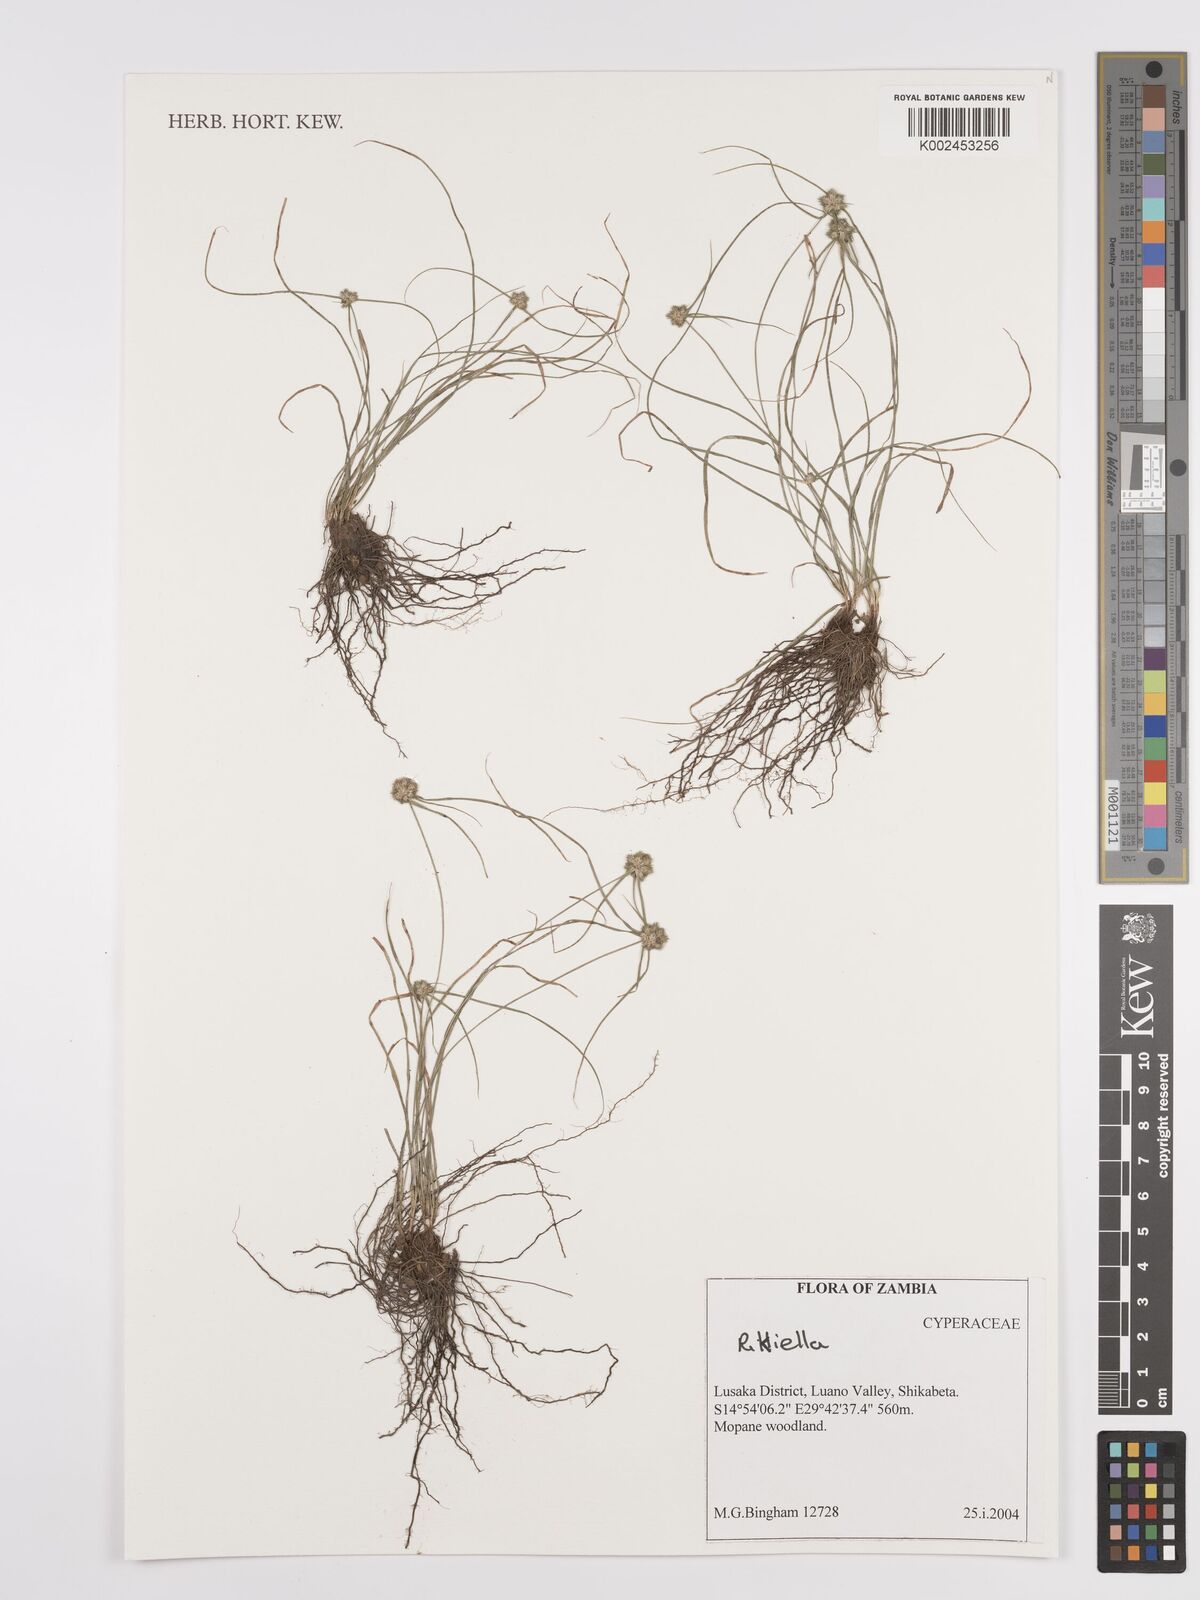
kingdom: Plantae
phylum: Tracheophyta
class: Liliopsida
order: Poales
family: Cyperaceae
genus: Cyperus
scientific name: Cyperus
